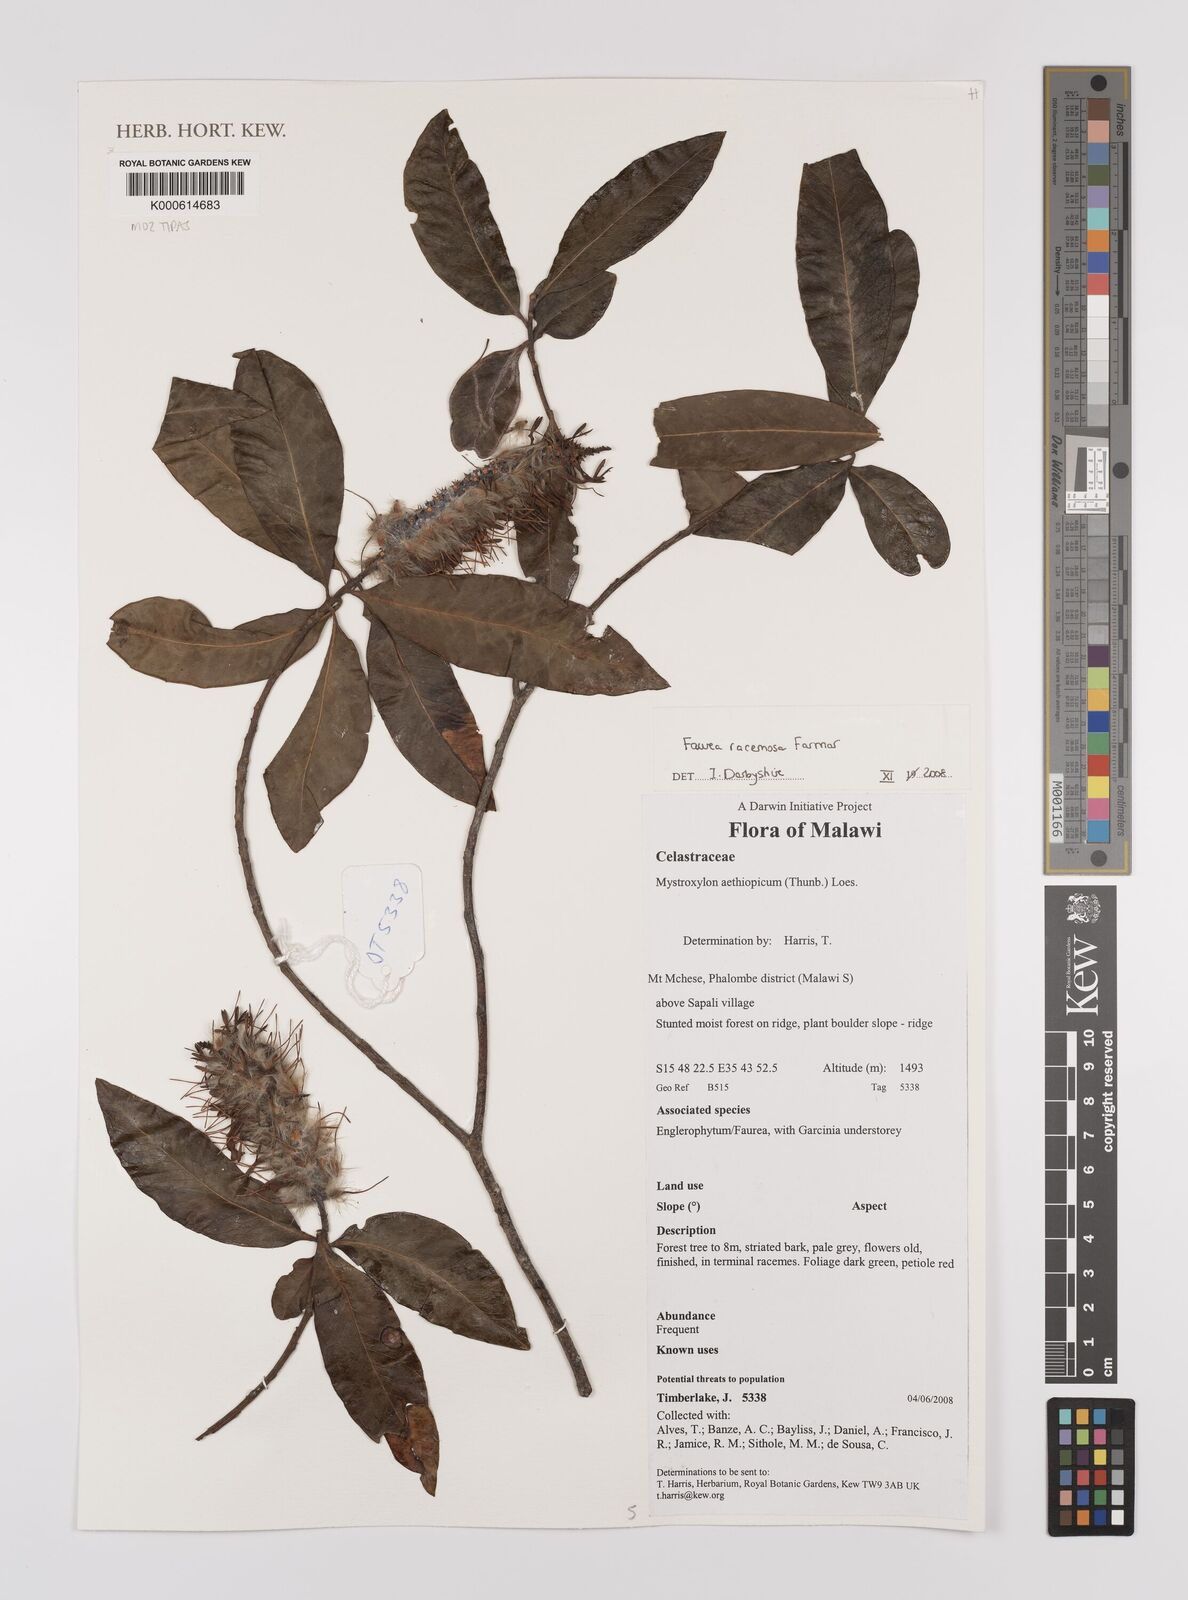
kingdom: Plantae
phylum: Tracheophyta
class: Magnoliopsida
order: Celastrales
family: Celastraceae
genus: Mystroxylon
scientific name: Mystroxylon aethiopicum
